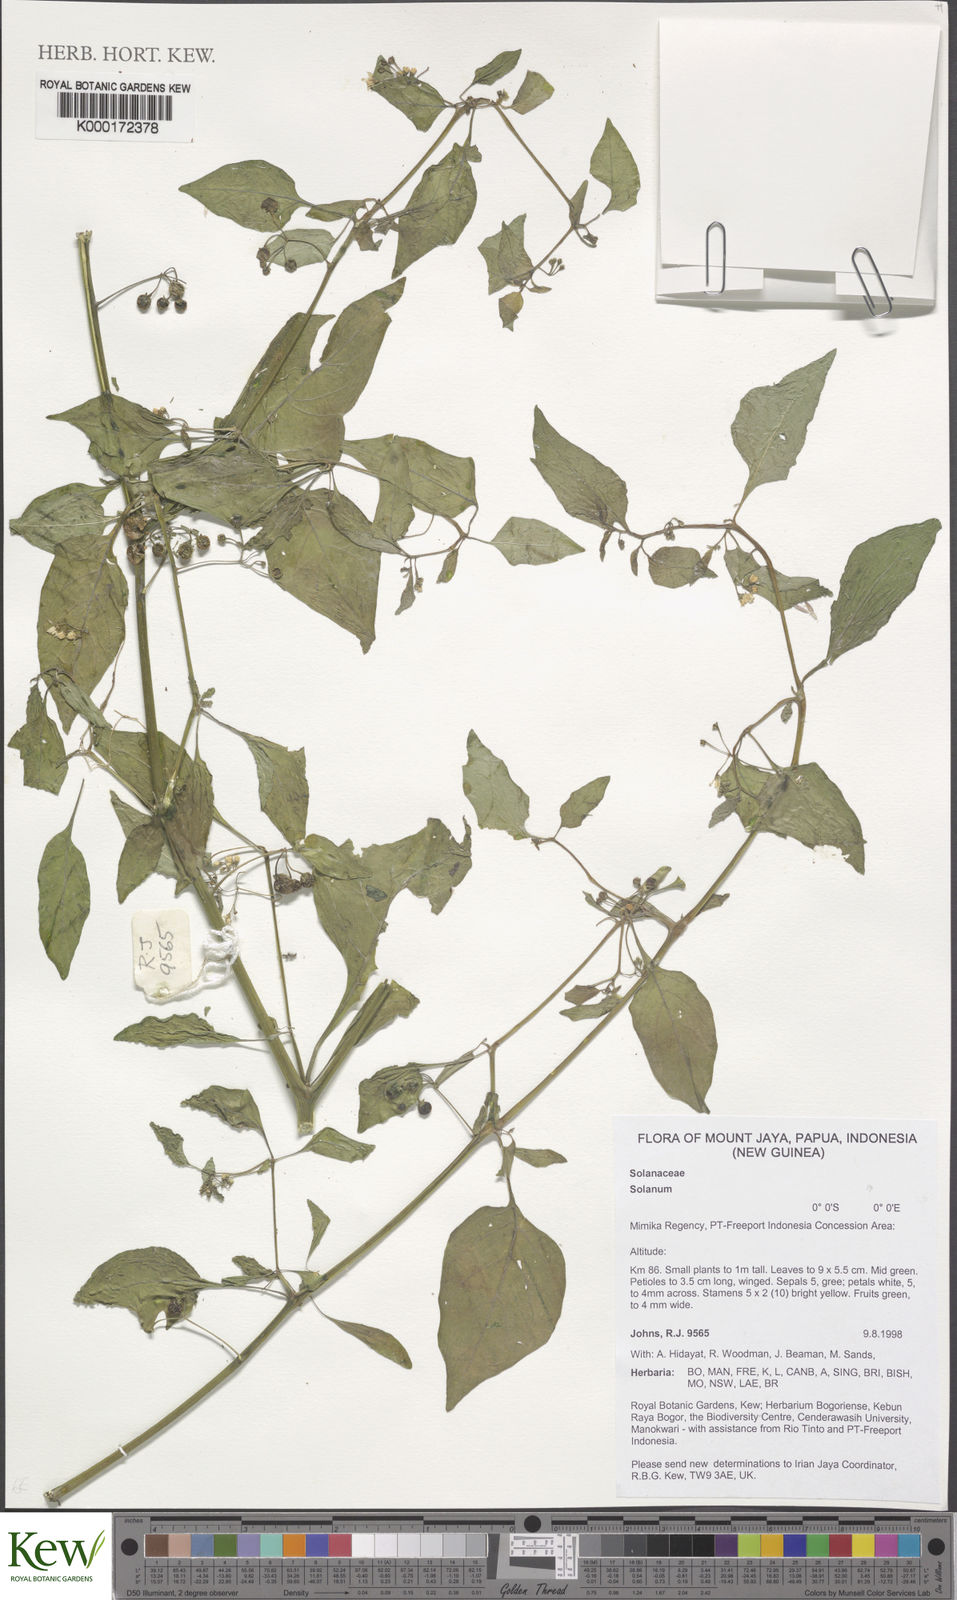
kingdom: Plantae
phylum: Tracheophyta
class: Magnoliopsida
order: Solanales
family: Solanaceae
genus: Solanum
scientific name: Solanum
